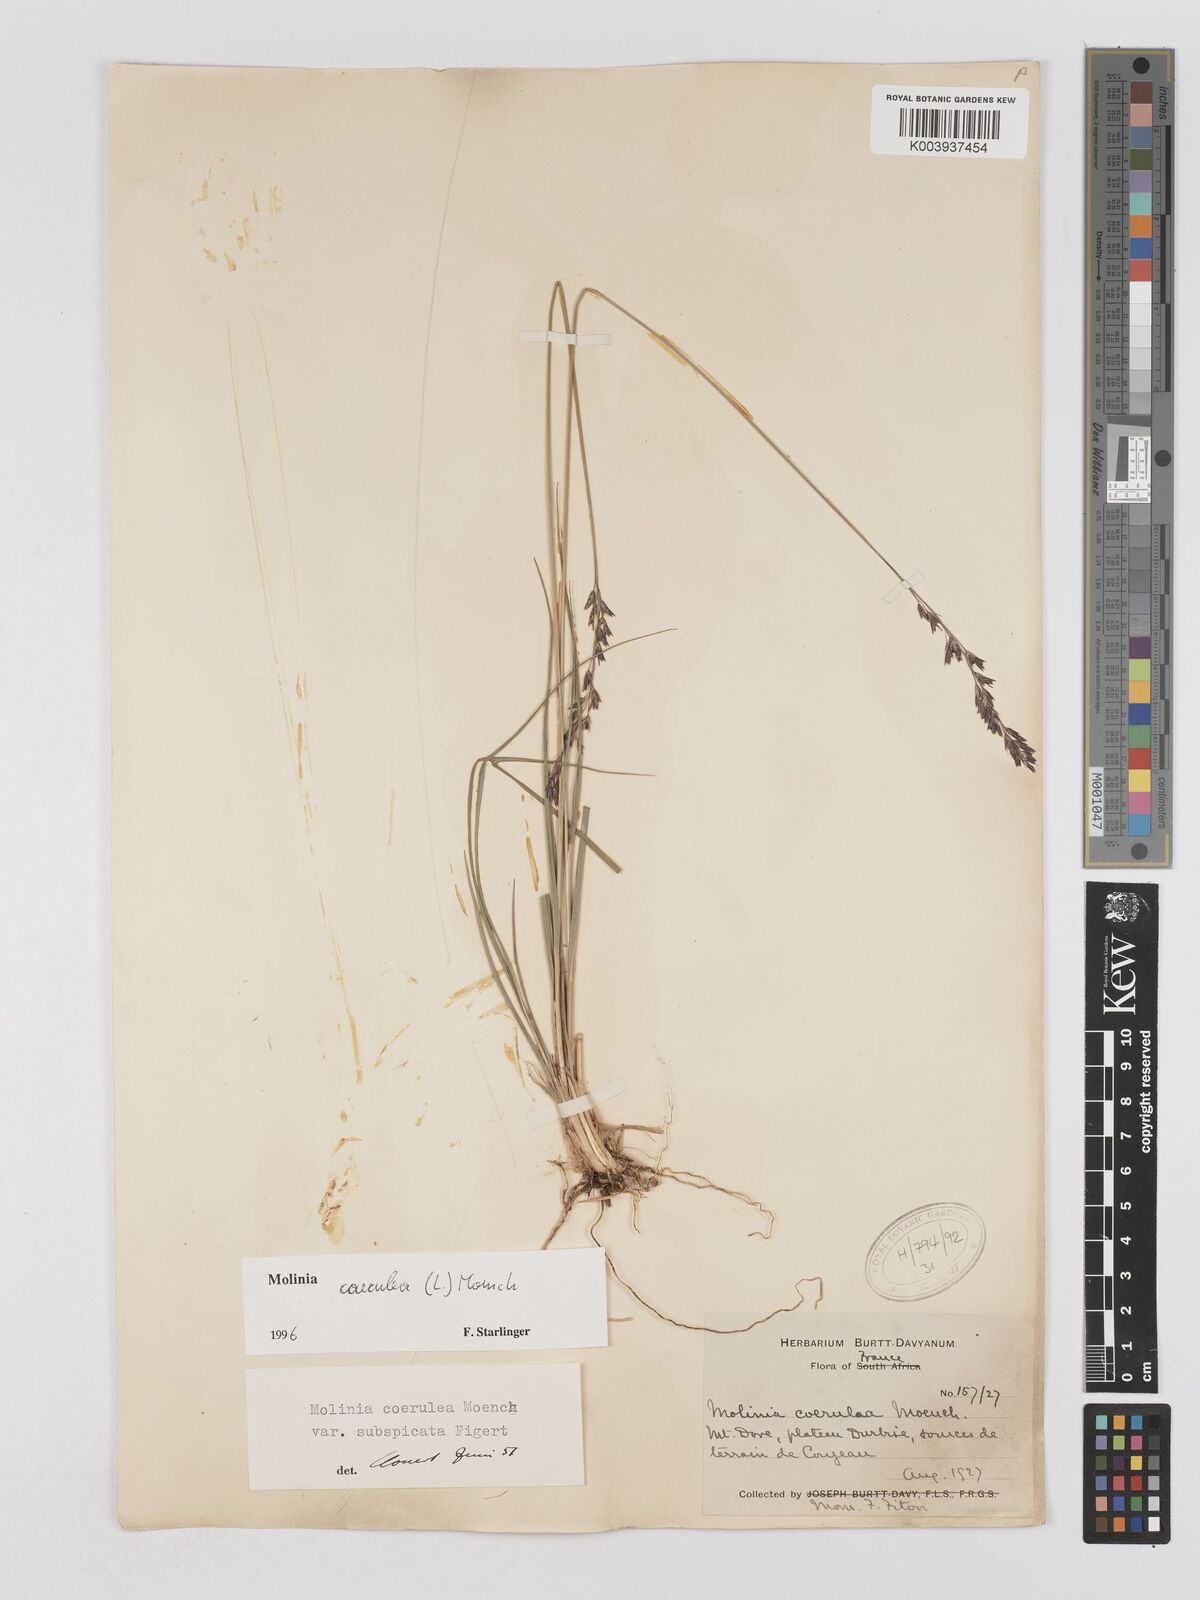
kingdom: Plantae
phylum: Tracheophyta
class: Liliopsida
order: Poales
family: Poaceae
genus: Molinia
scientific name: Molinia caerulea
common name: Purple moor-grass
